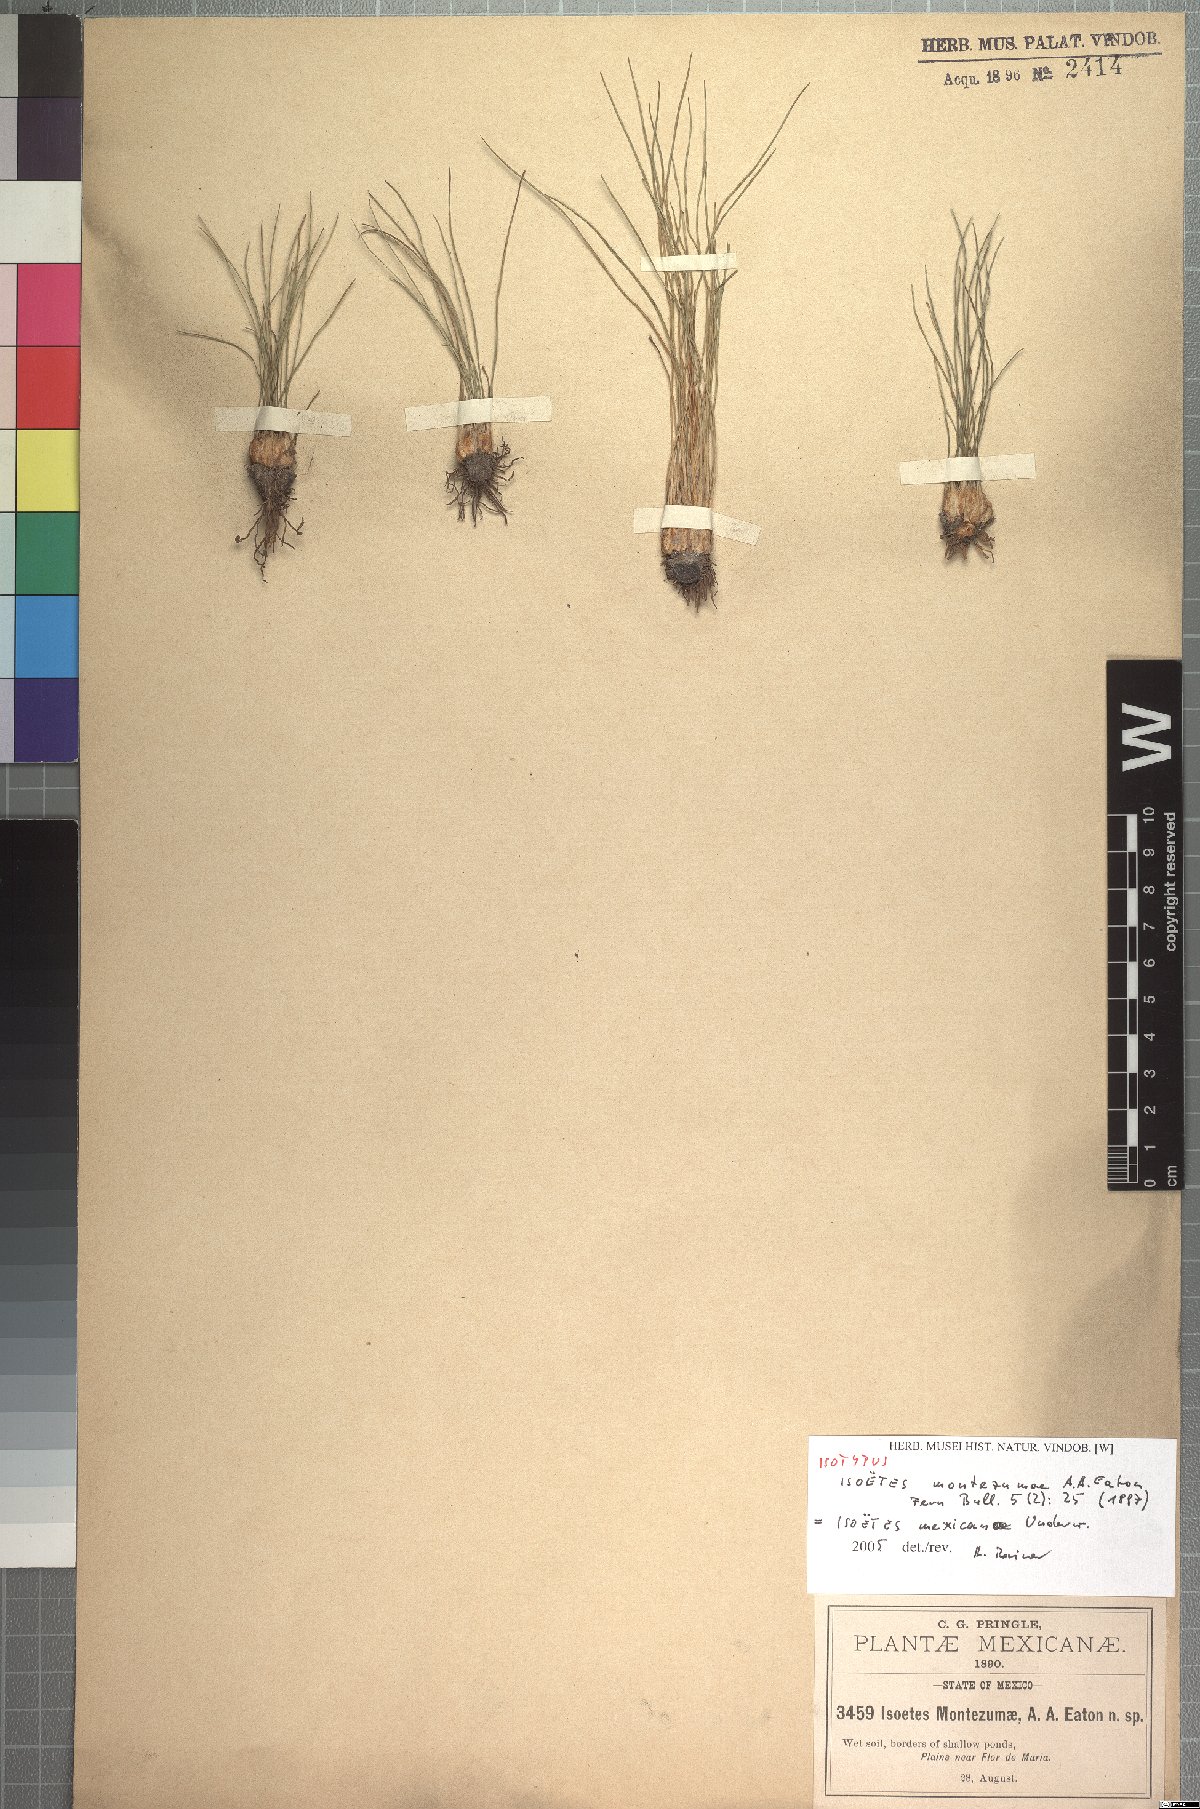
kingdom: Plantae
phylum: Tracheophyta
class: Lycopodiopsida
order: Isoetales
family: Isoetaceae
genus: Isoetes
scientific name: Isoetes mexicana
